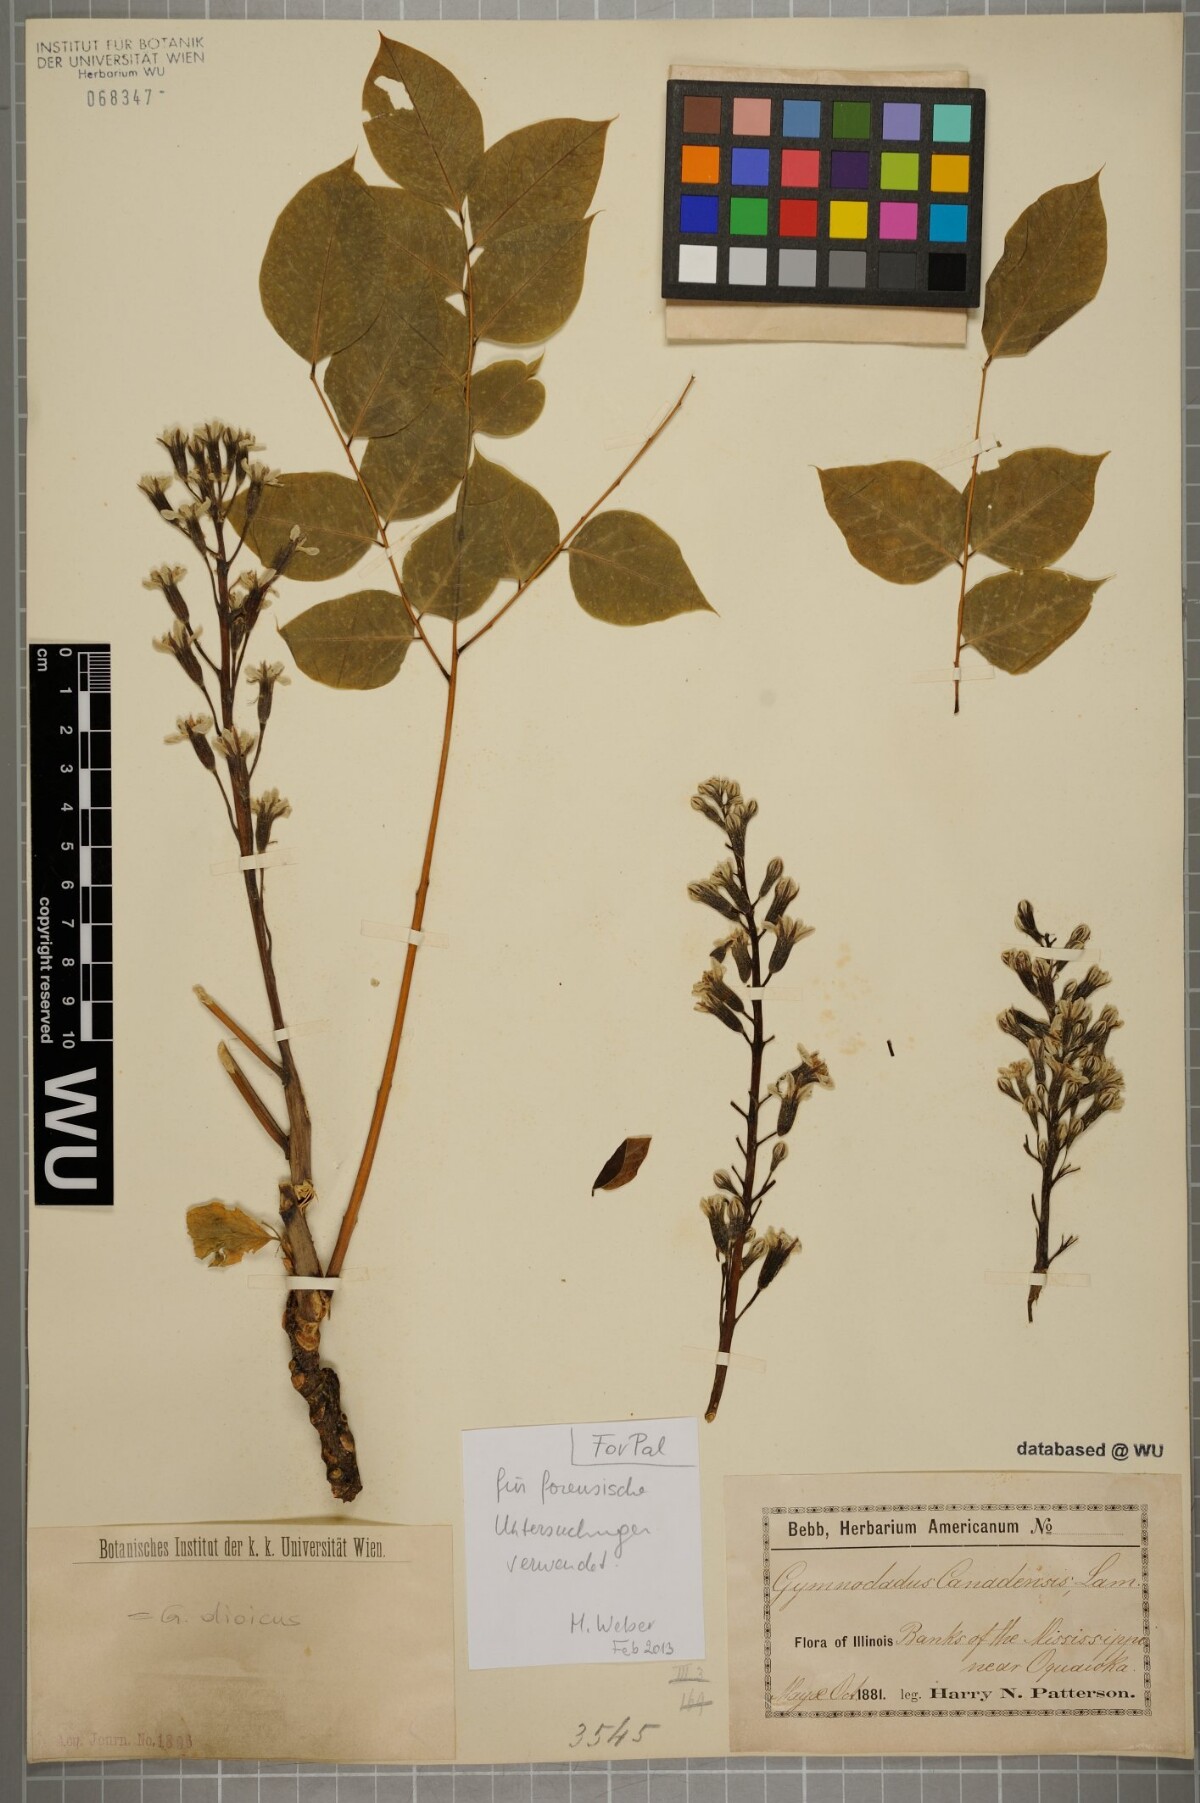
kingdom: Plantae
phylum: Tracheophyta
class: Magnoliopsida
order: Fabales
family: Fabaceae
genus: Gymnocladus
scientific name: Gymnocladus dioicus
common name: Kentucky coffee-tree
